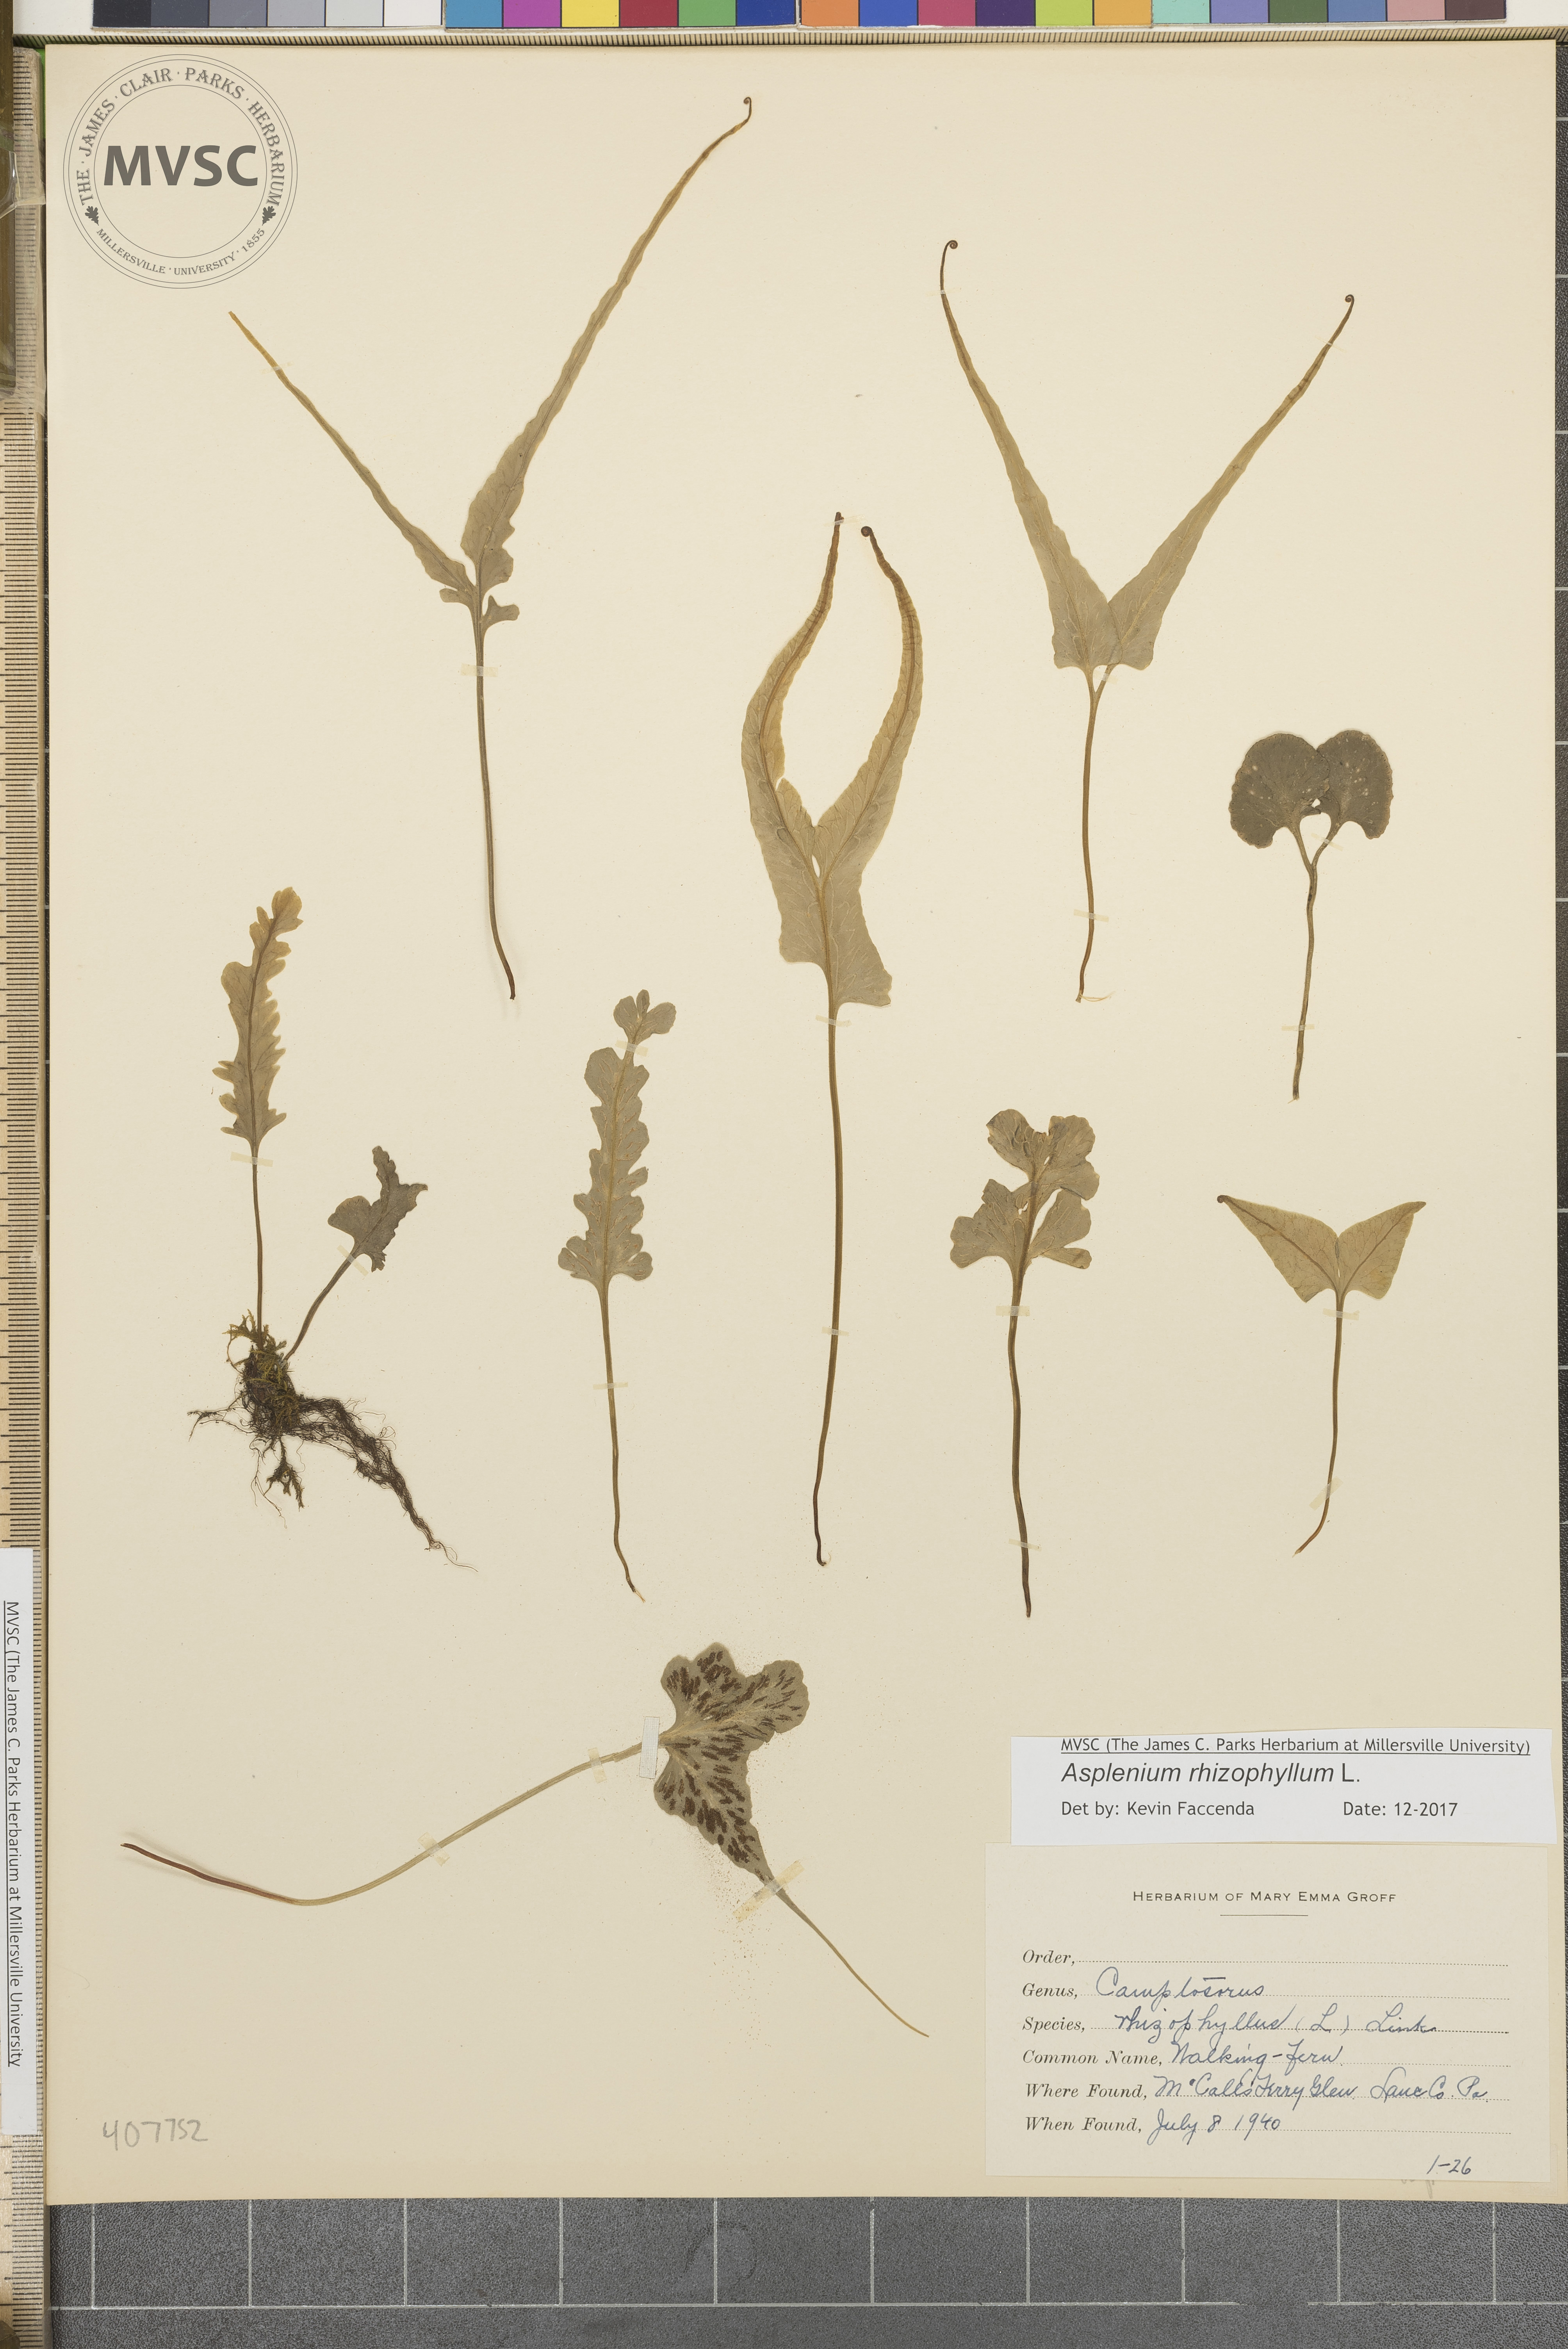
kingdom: Plantae
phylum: Tracheophyta
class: Polypodiopsida
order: Polypodiales
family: Aspleniaceae
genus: Asplenium
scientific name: Asplenium rhizophyllum
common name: Walking fern
